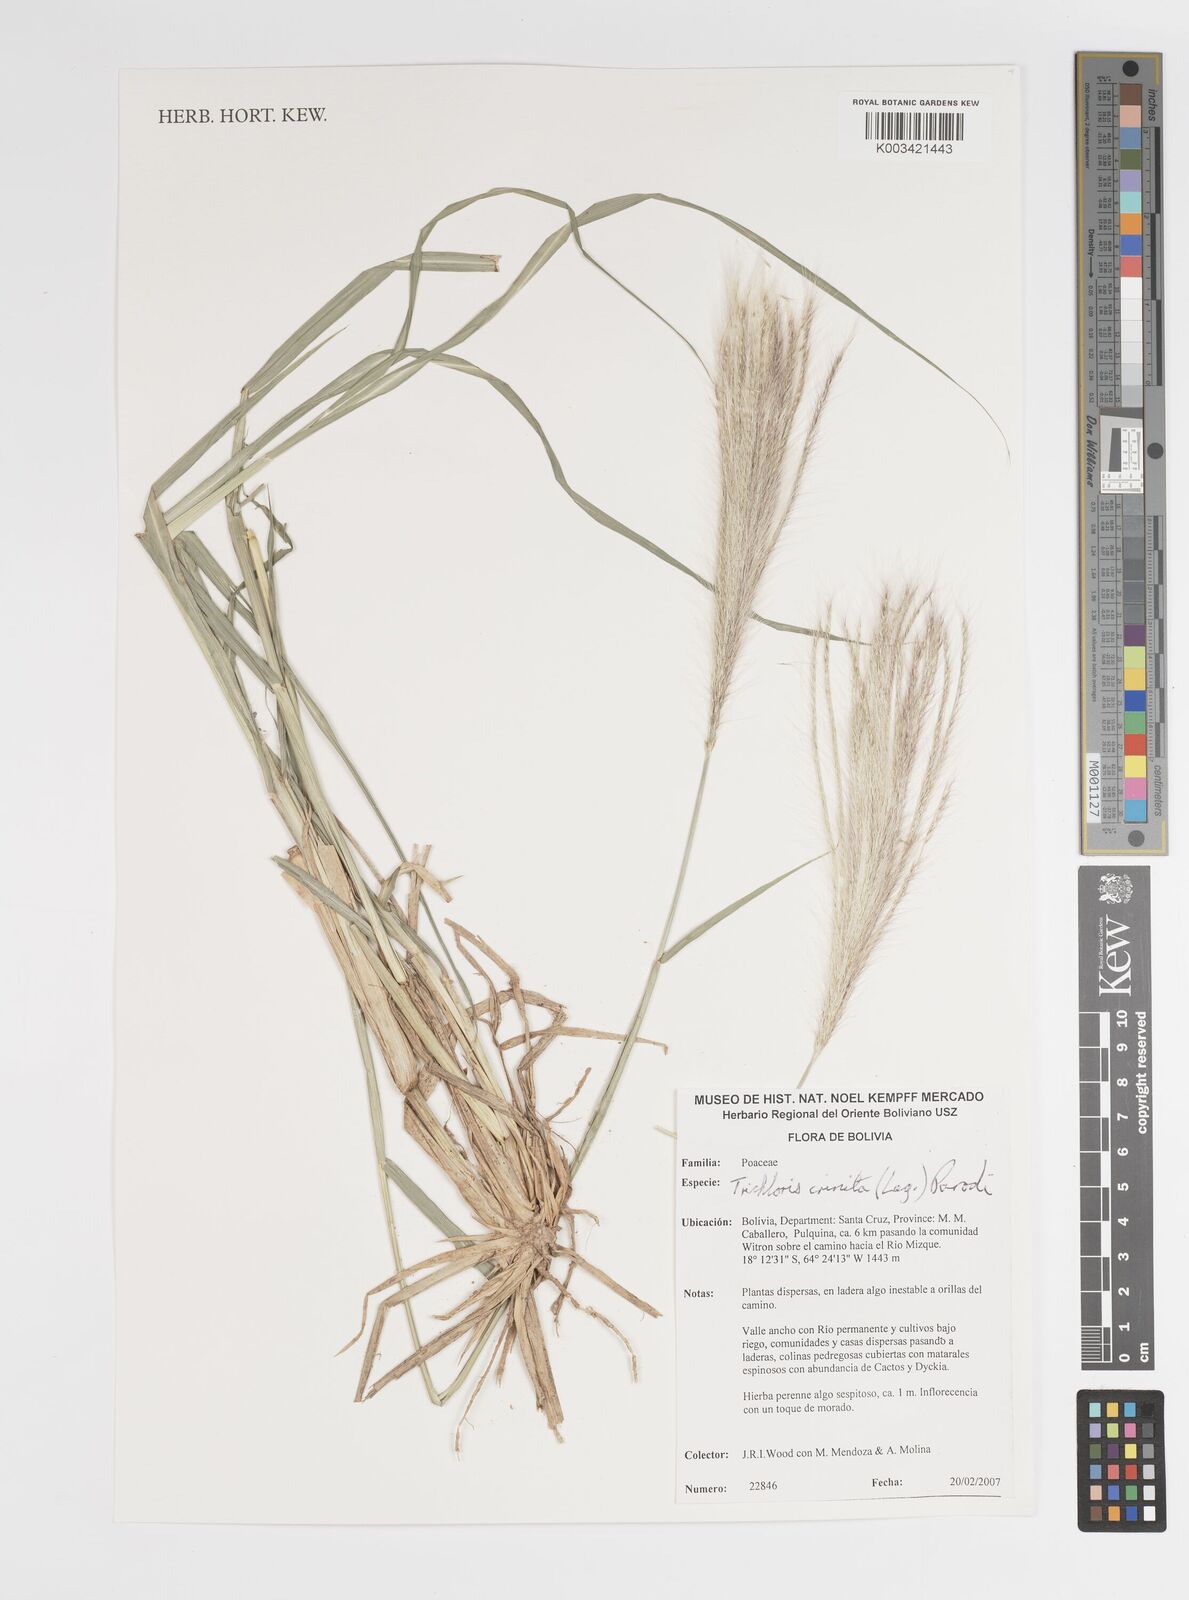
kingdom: Plantae
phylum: Tracheophyta
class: Liliopsida
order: Poales
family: Poaceae
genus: Leptochloa
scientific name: Leptochloa crinita
